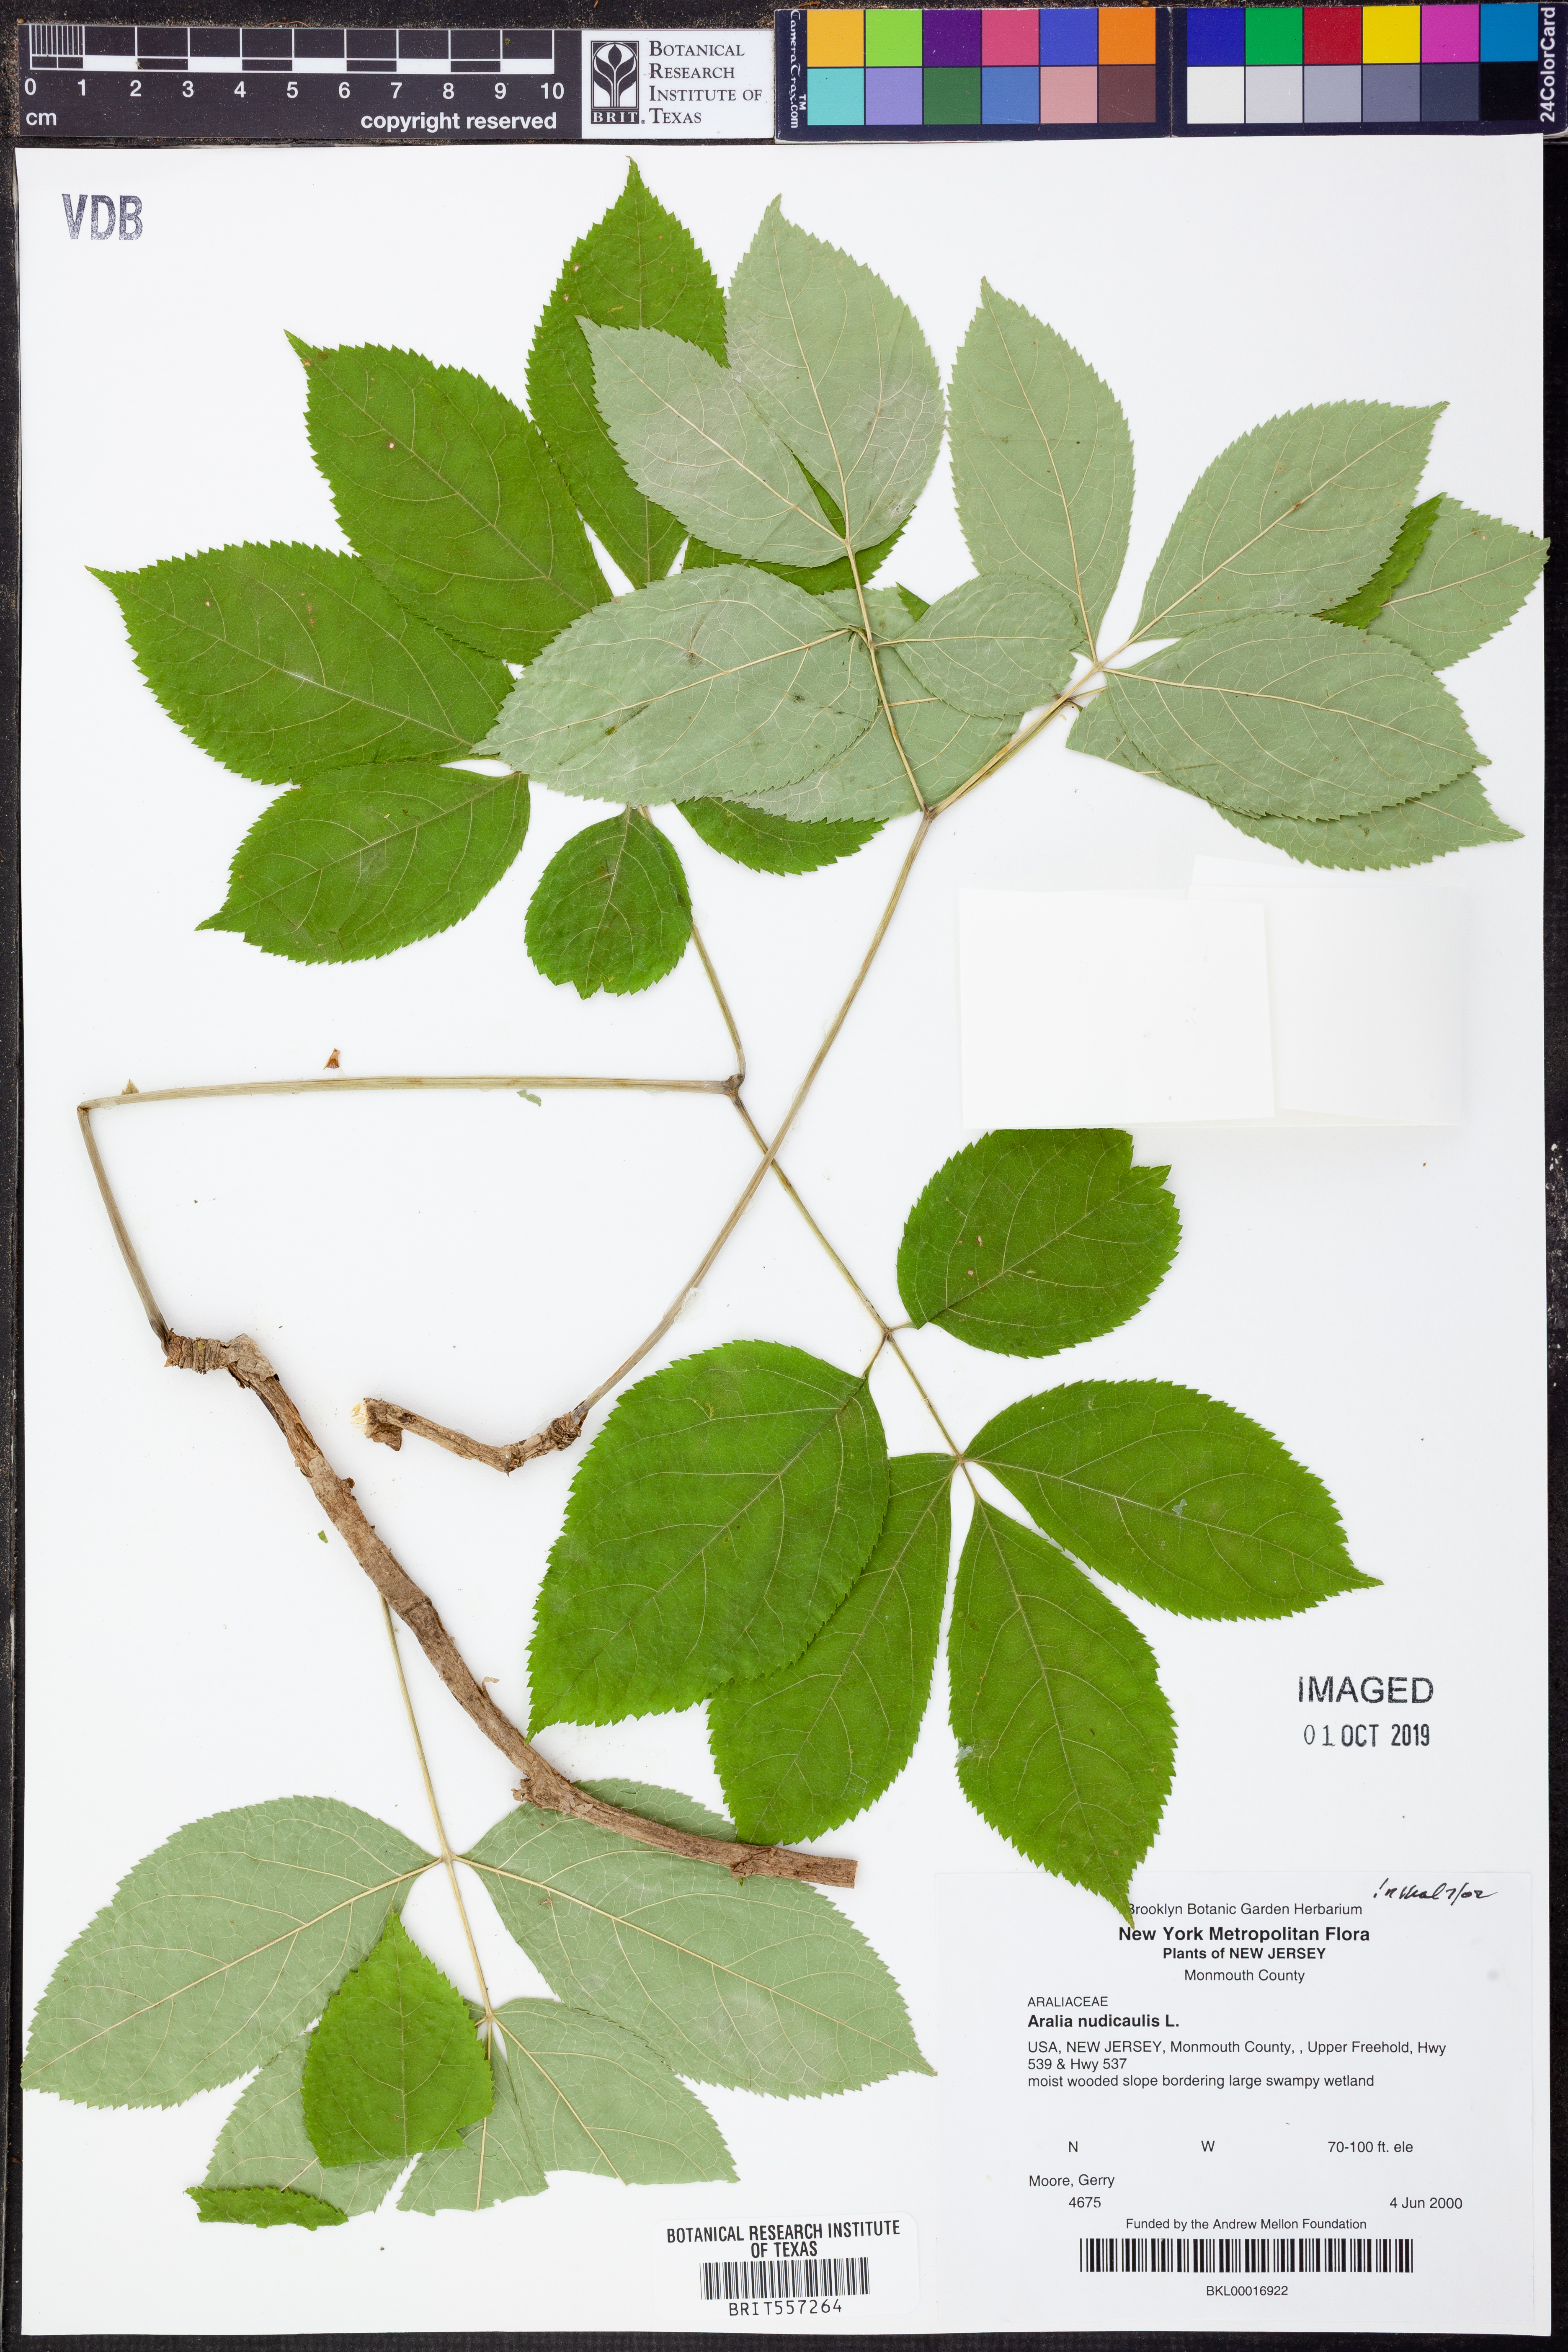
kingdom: Plantae
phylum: Tracheophyta
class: Magnoliopsida
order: Apiales
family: Araliaceae
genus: Aralia
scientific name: Aralia nudicaulis
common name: Wild sarsaparilla
